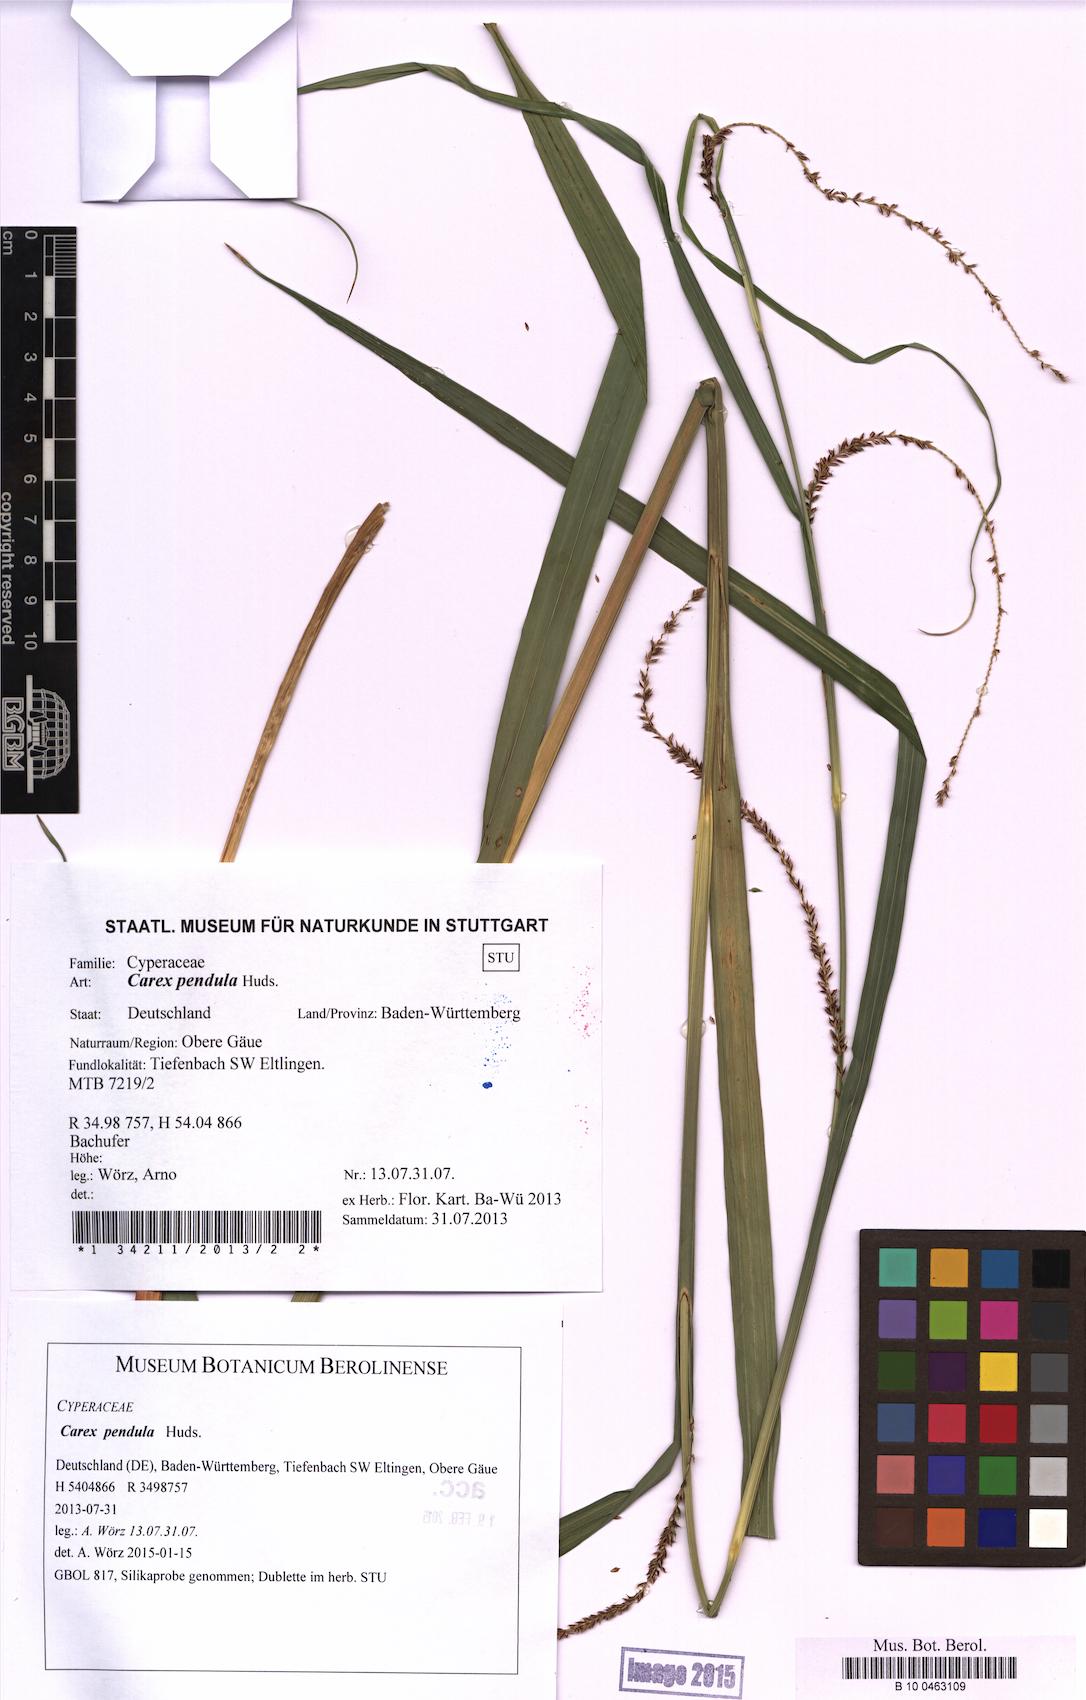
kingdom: Plantae
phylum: Tracheophyta
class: Liliopsida
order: Poales
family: Cyperaceae
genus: Carex
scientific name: Carex pendula
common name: Pendulous sedge
